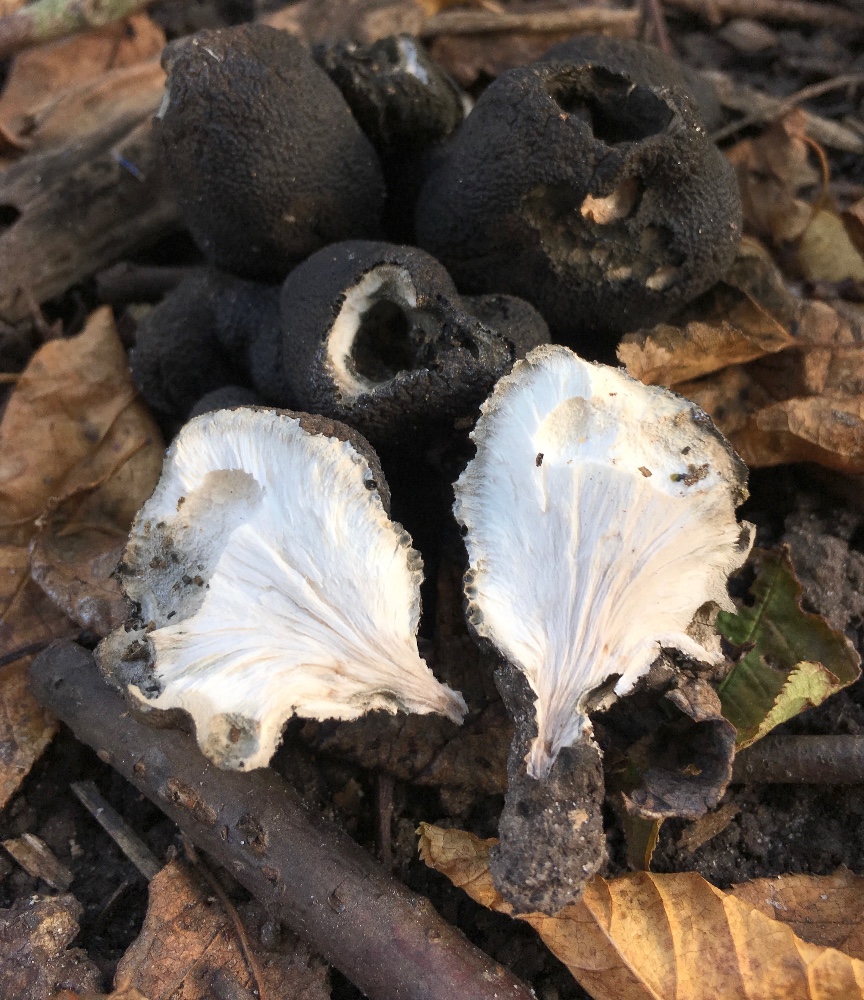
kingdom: Fungi
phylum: Ascomycota
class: Sordariomycetes
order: Xylariales
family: Xylariaceae
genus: Xylaria
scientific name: Xylaria polymorpha
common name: kølle-stødsvamp
